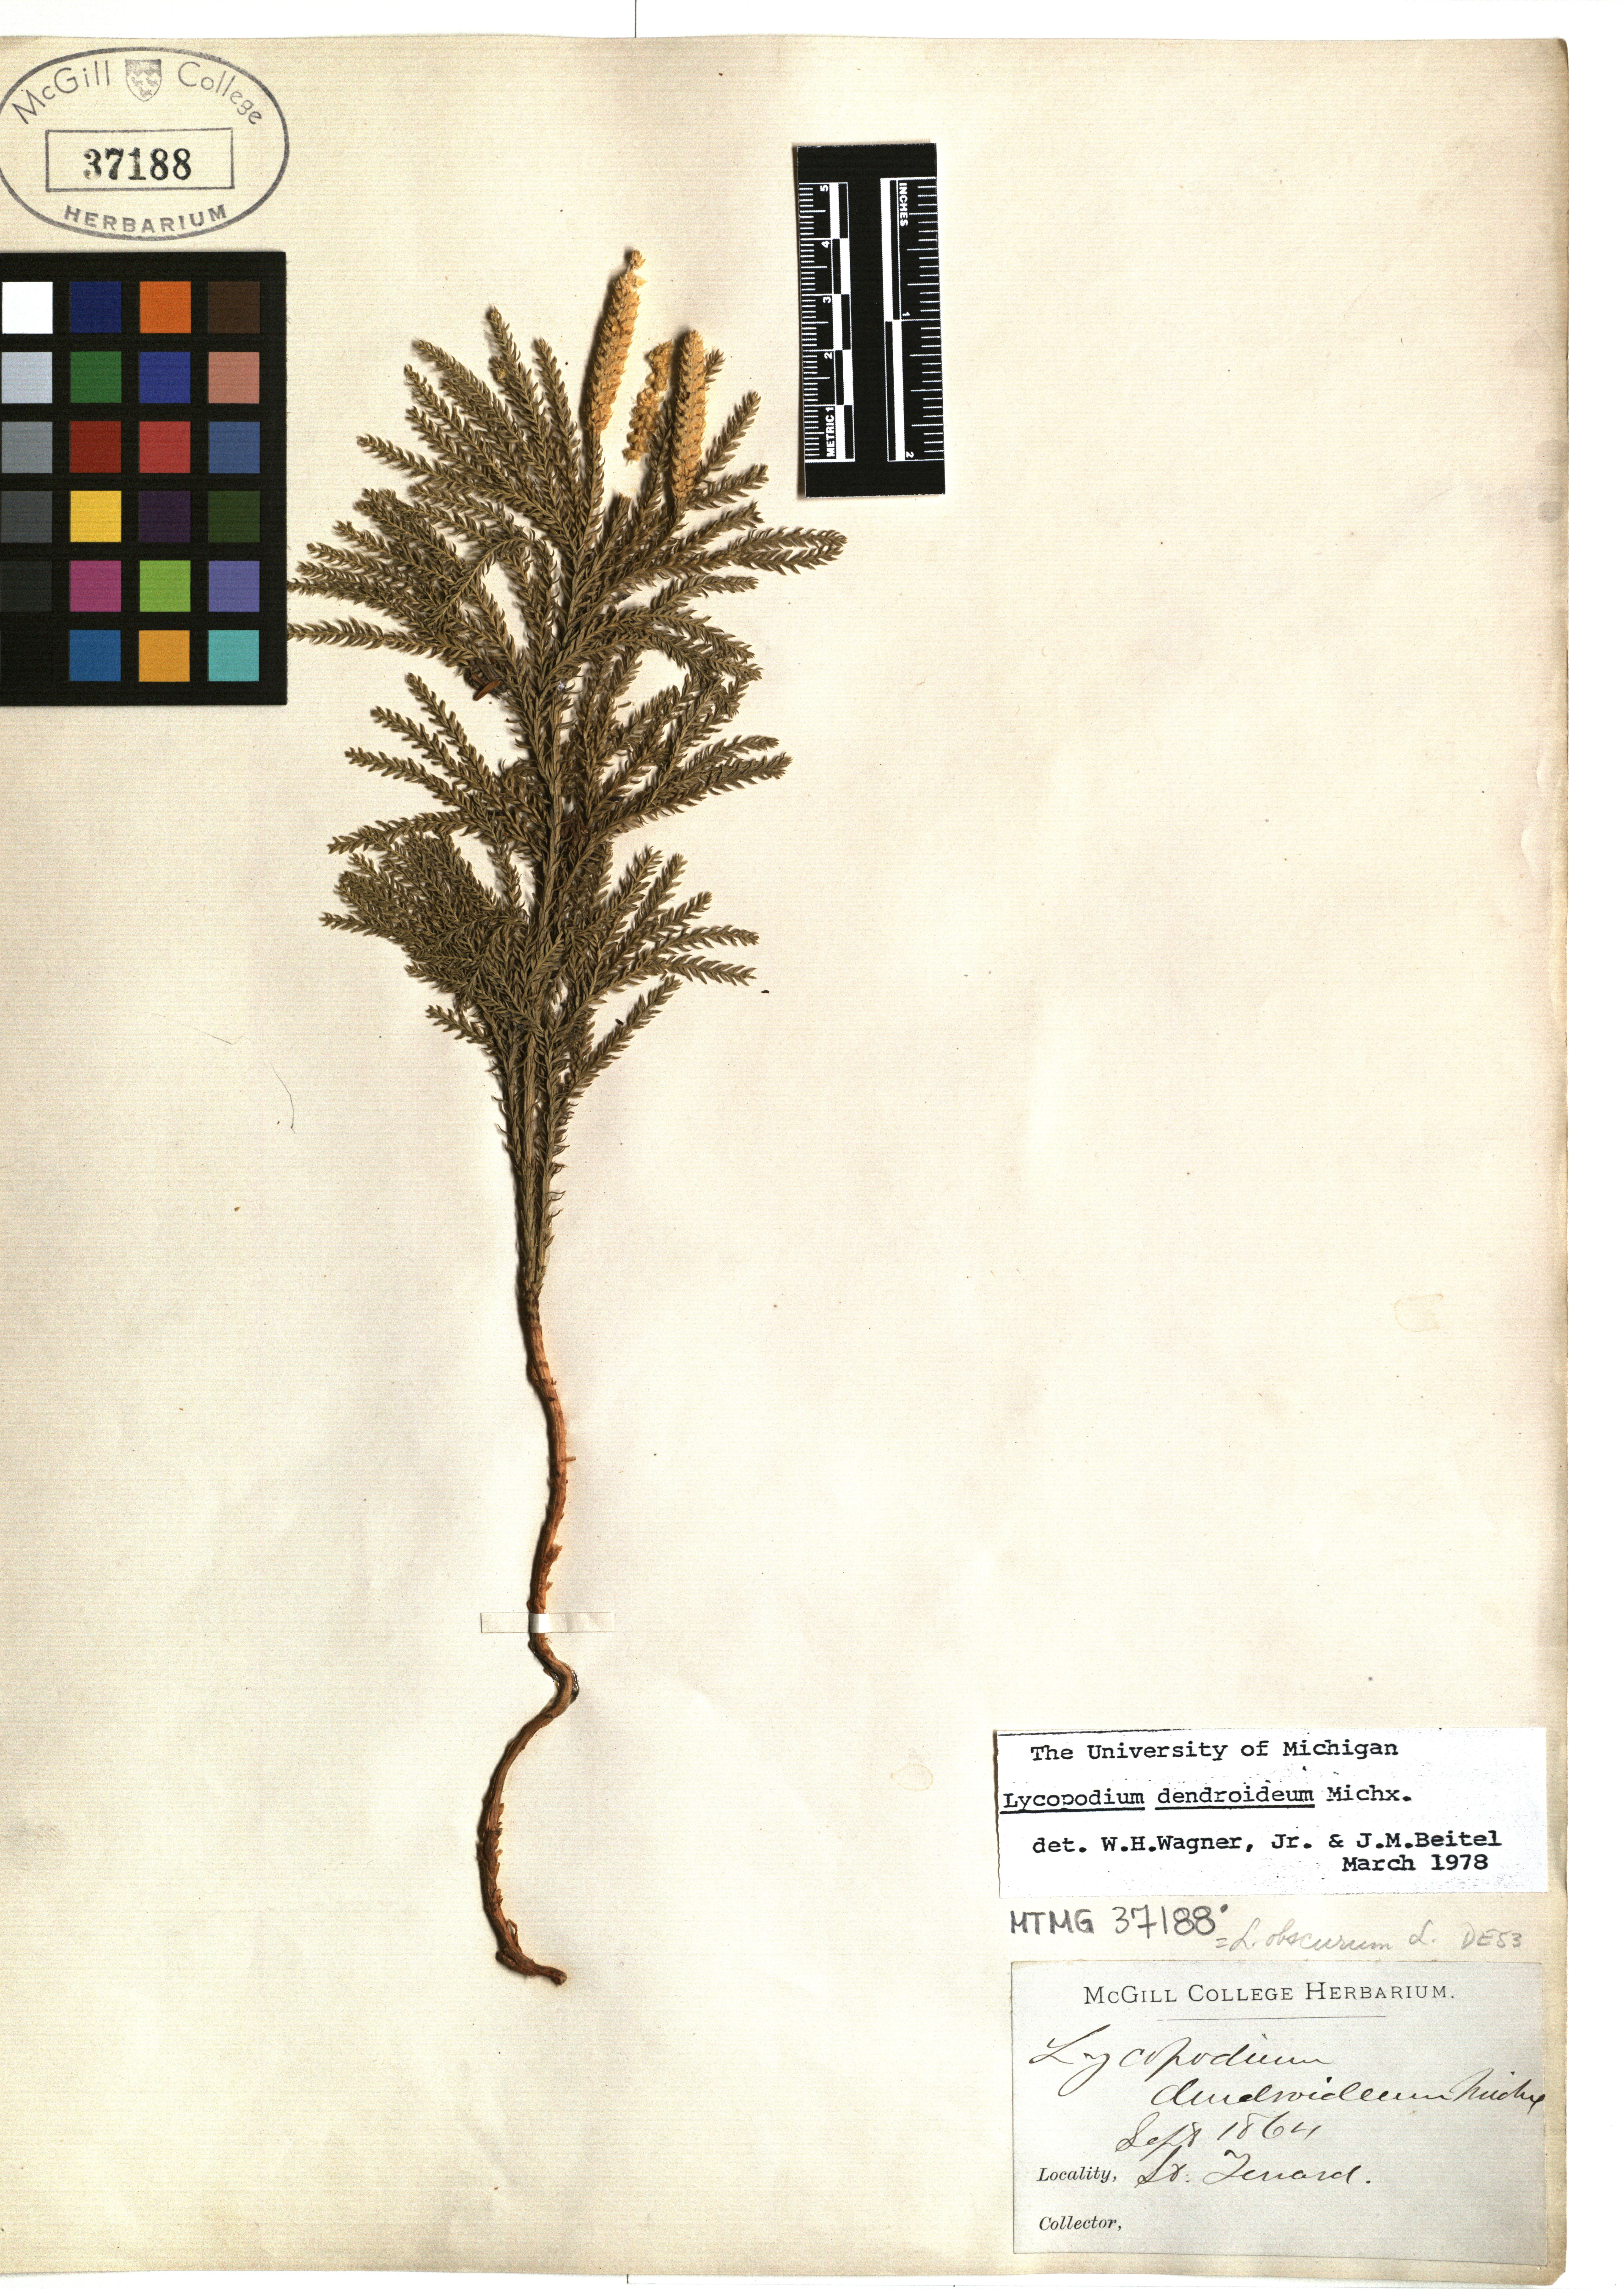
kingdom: Plantae
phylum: Tracheophyta
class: Lycopodiopsida
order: Lycopodiales
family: Lycopodiaceae
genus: Dendrolycopodium
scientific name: Dendrolycopodium dendroideum
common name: Northern tree-clubmoss
